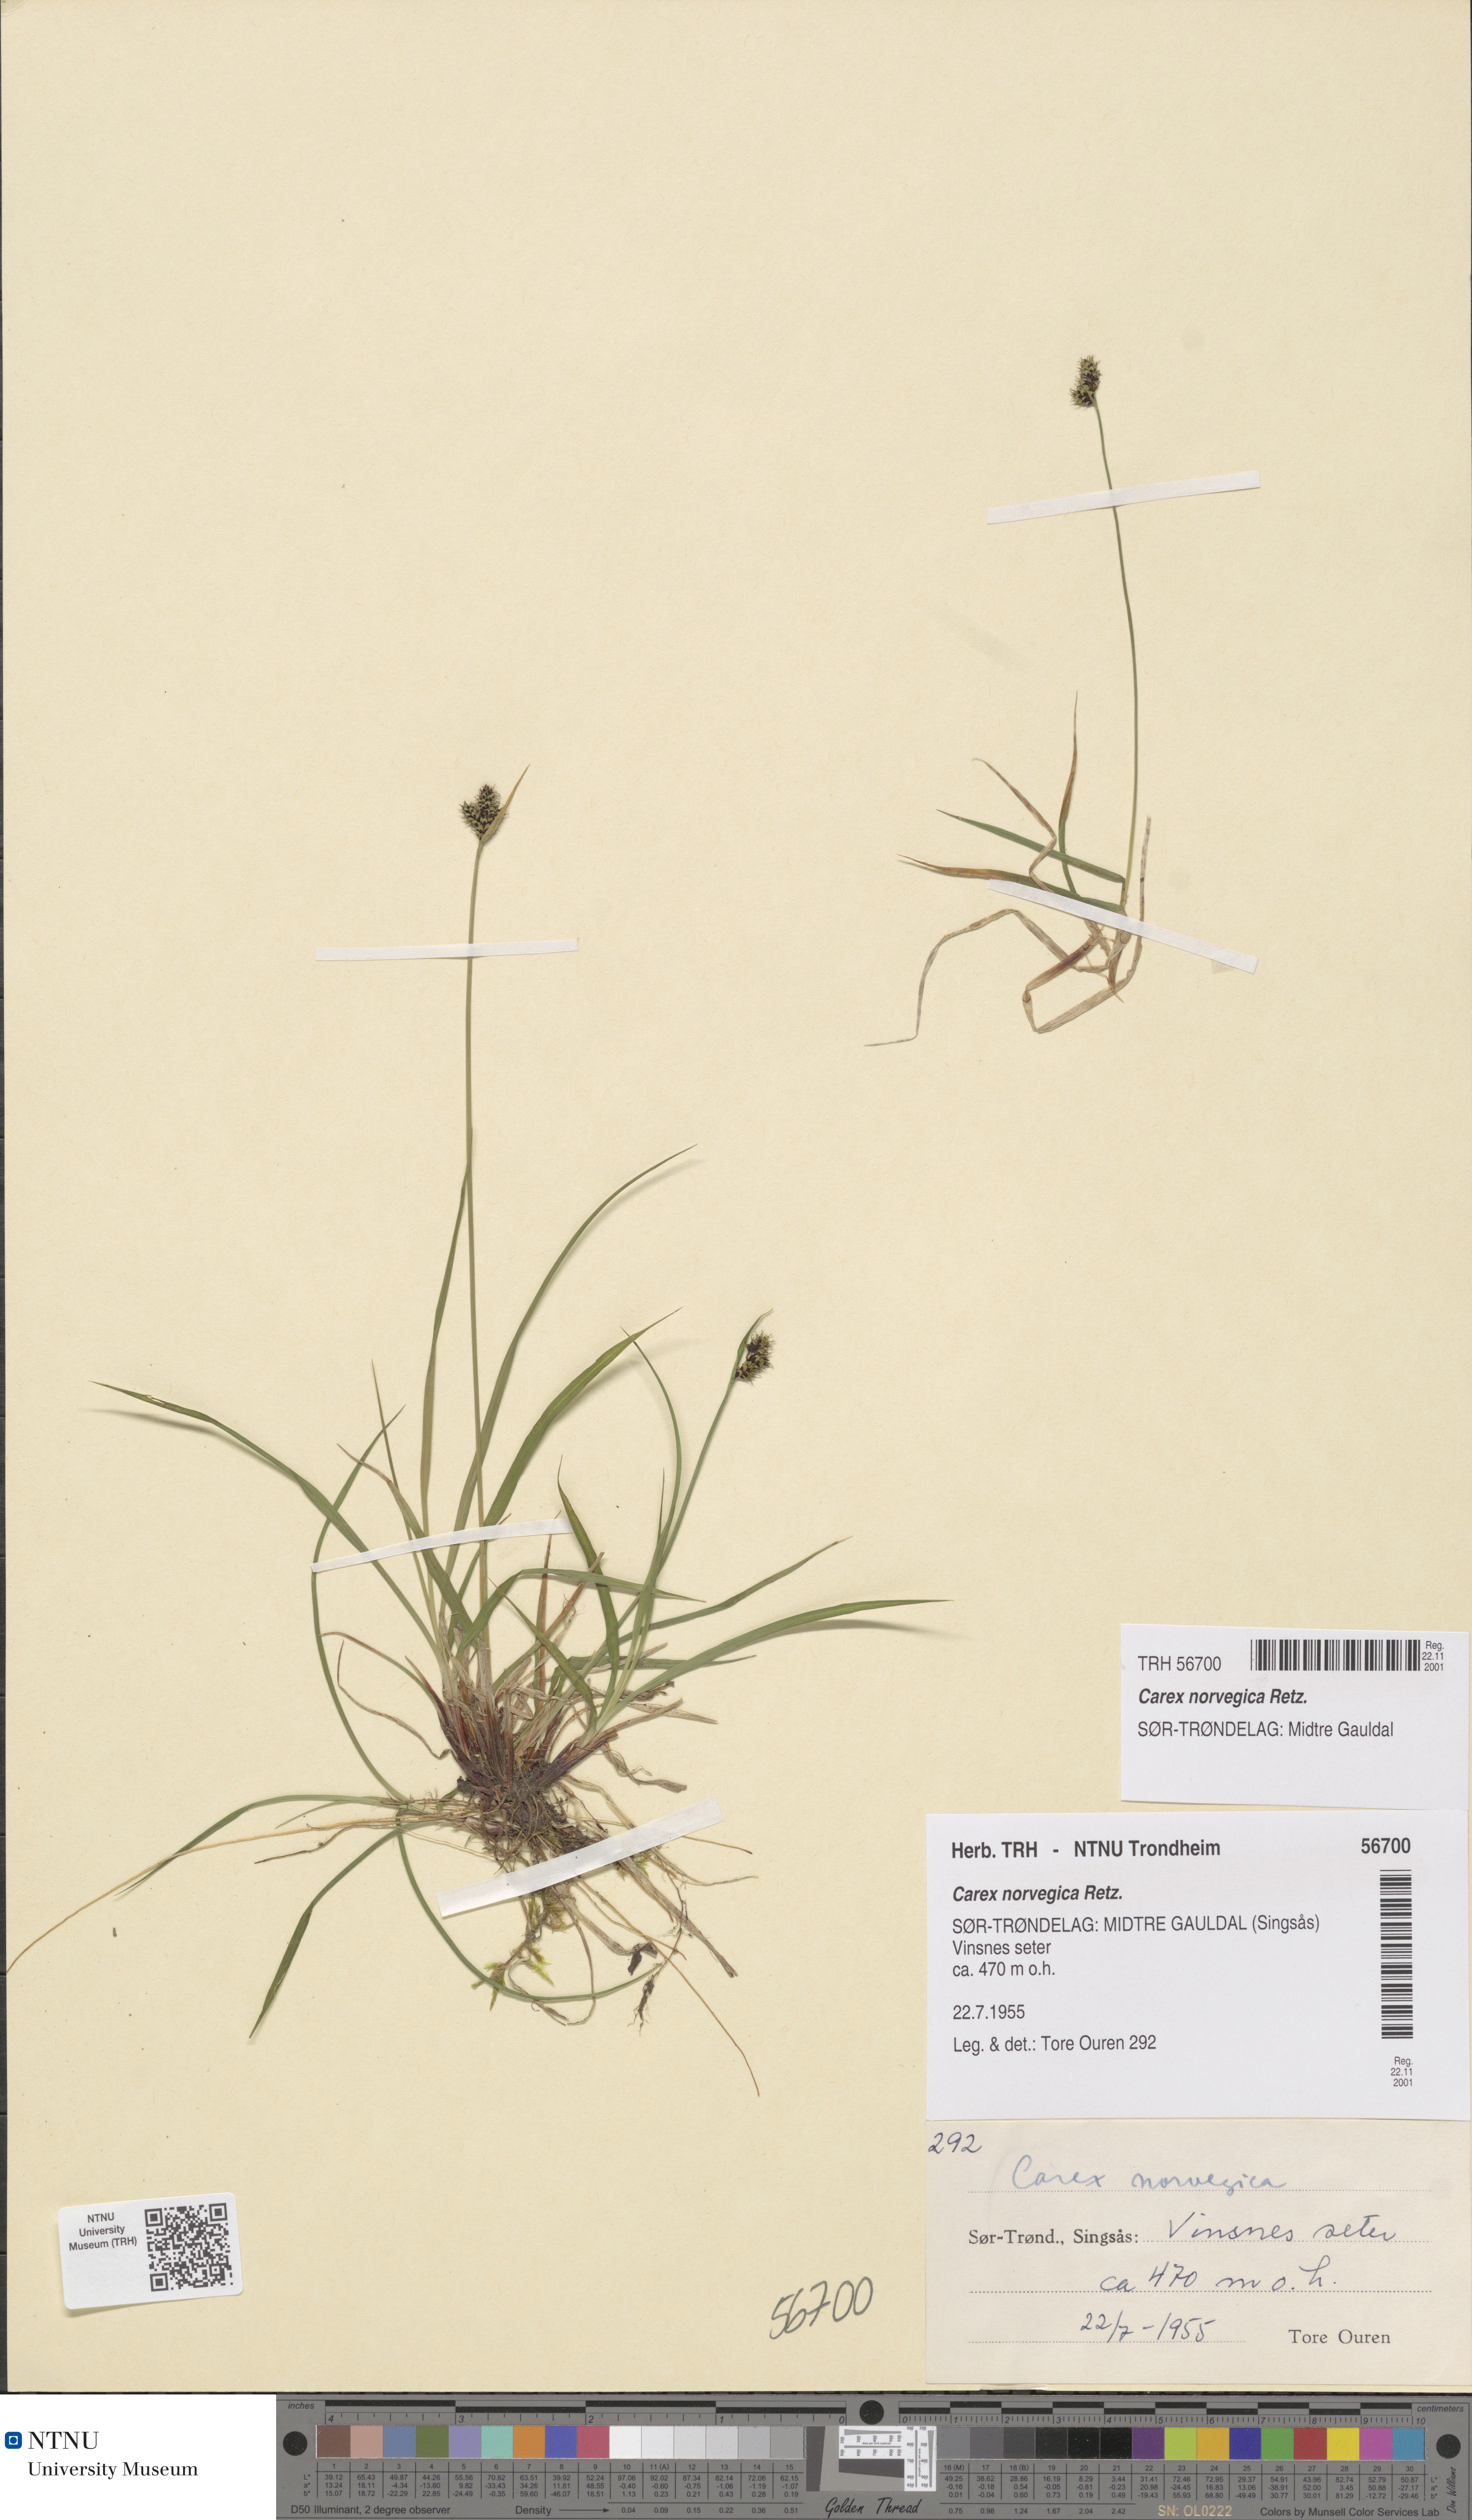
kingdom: Plantae
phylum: Tracheophyta
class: Liliopsida
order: Poales
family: Cyperaceae
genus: Carex
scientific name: Carex norvegica
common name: Close-headed alpine-sedge
